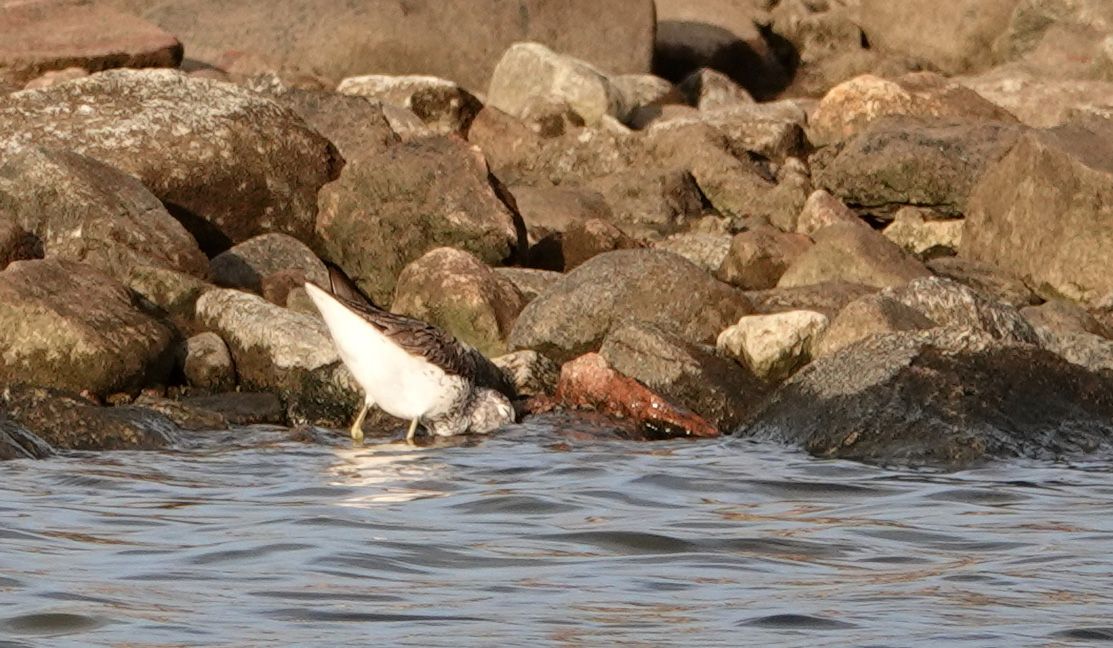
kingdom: Animalia
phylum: Chordata
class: Aves
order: Charadriiformes
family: Scolopacidae
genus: Tringa
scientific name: Tringa nebularia
